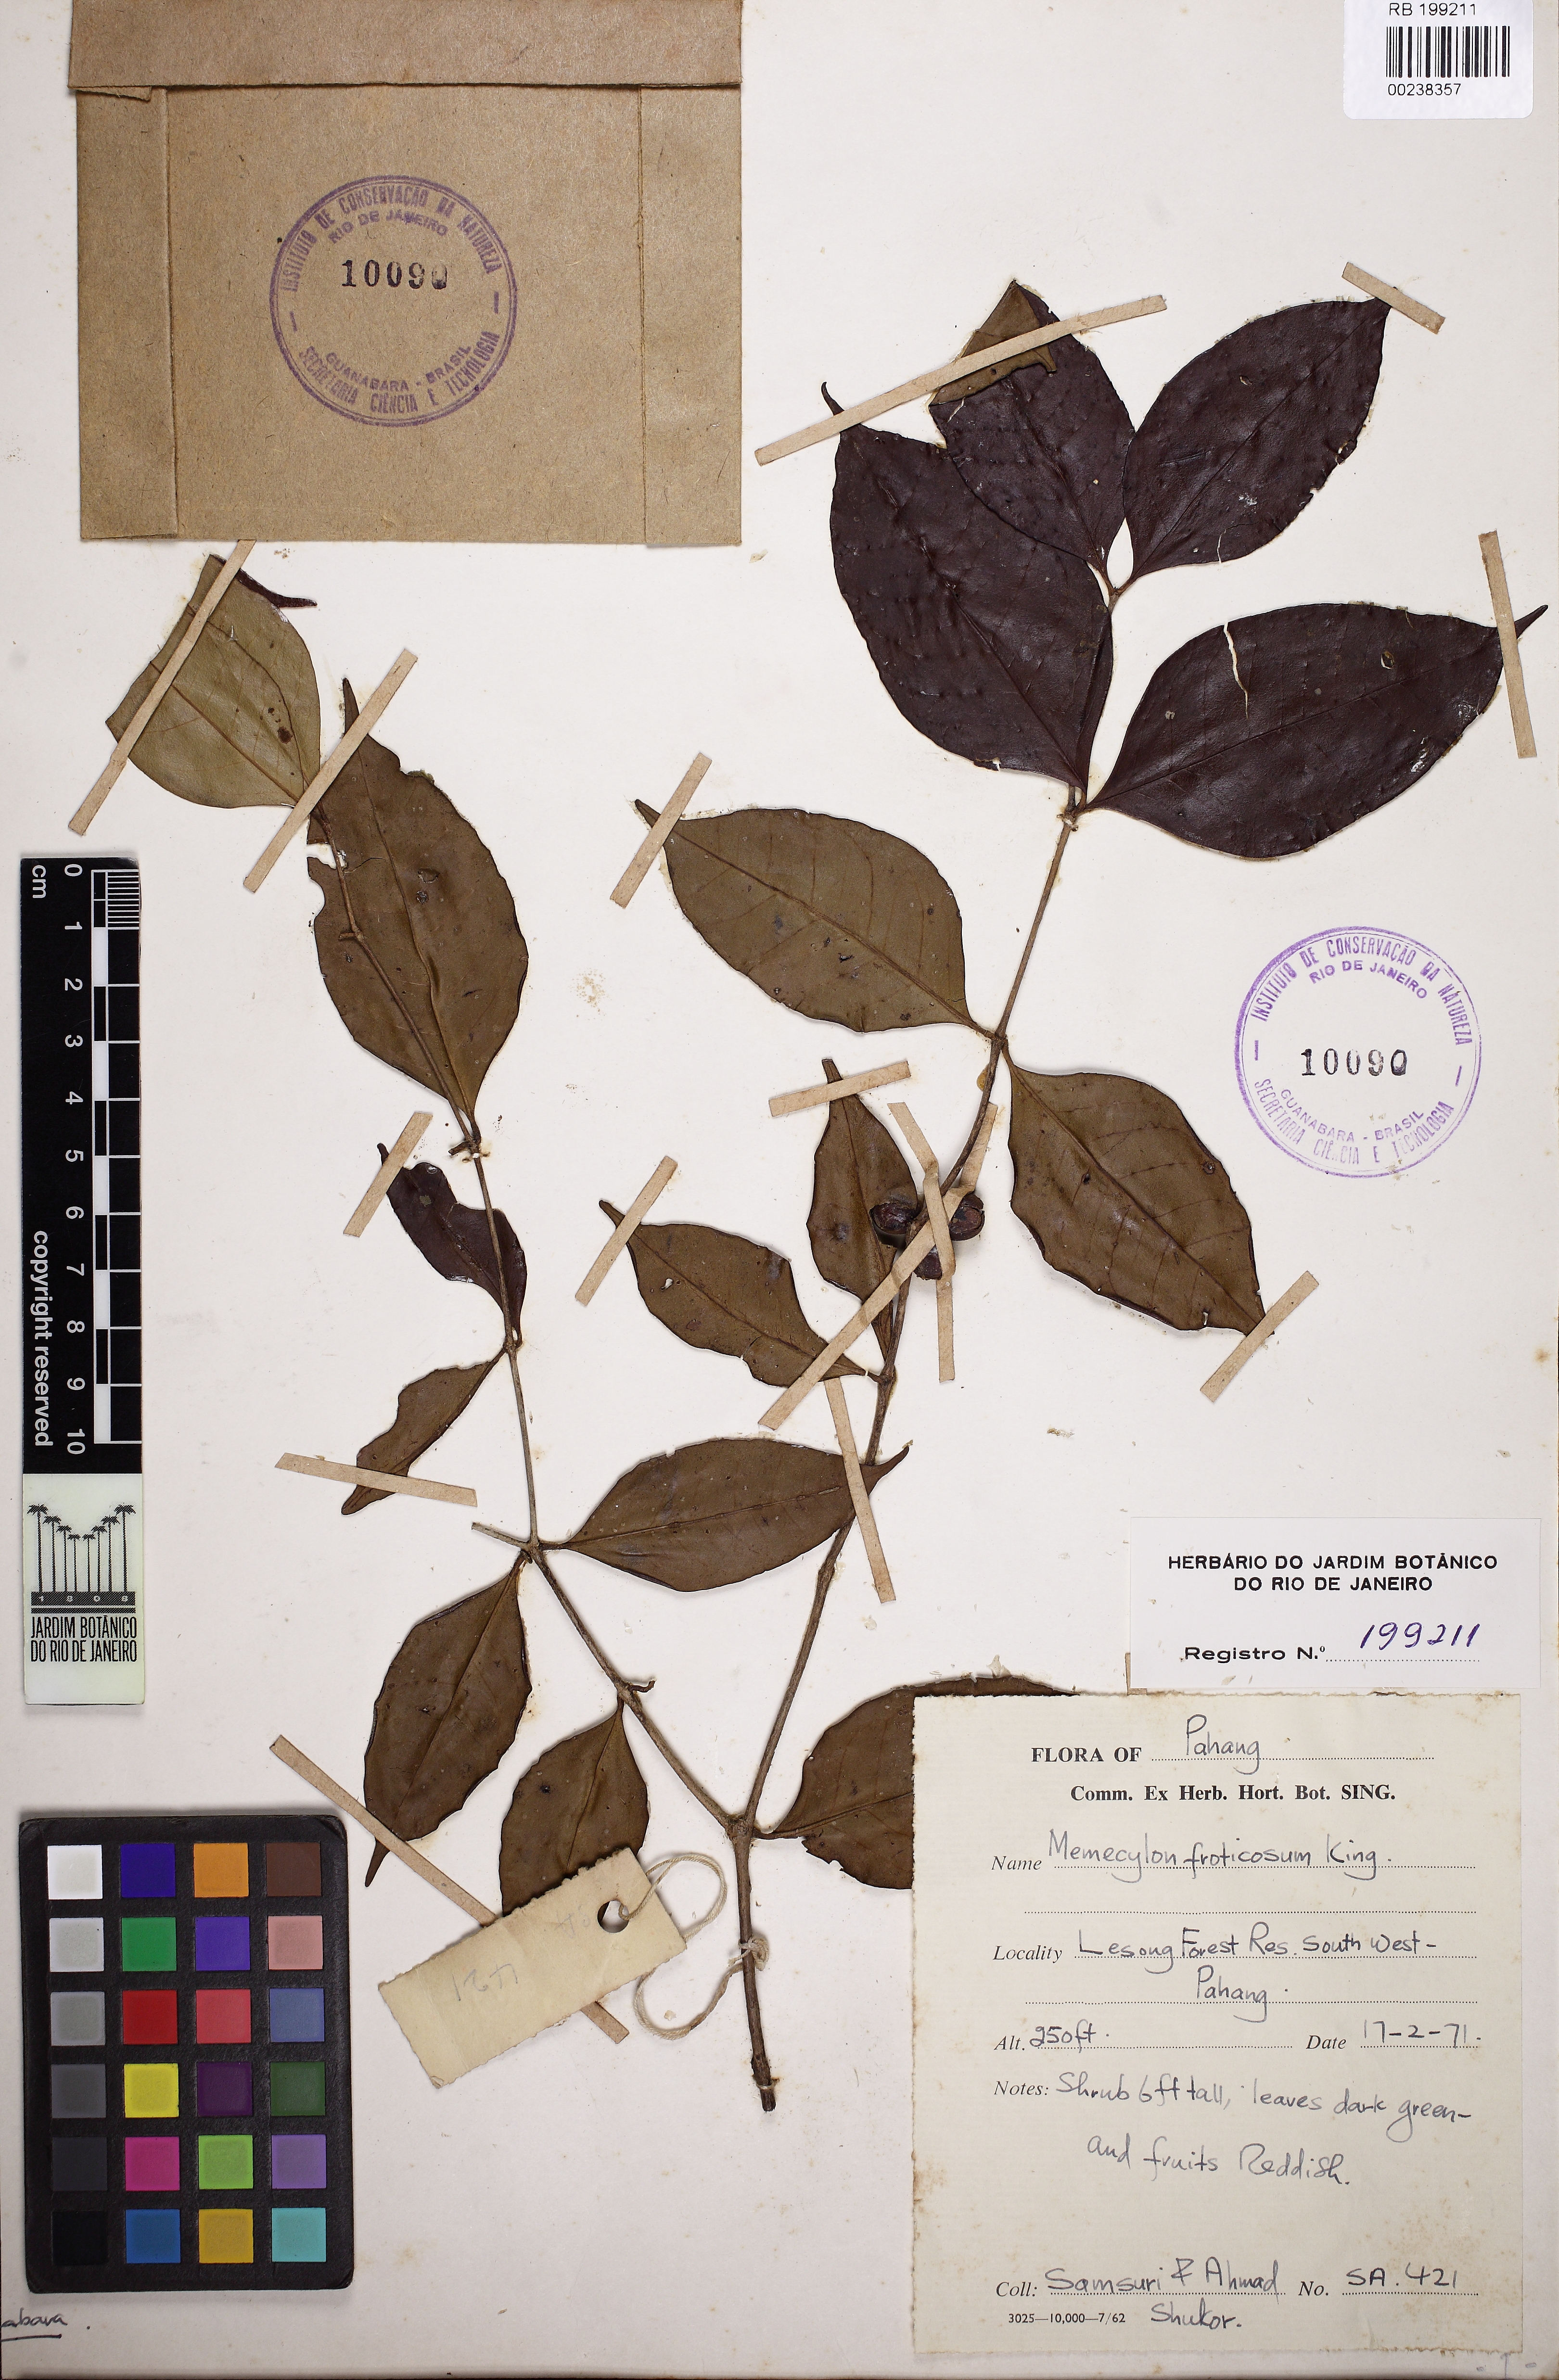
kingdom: Plantae
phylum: Tracheophyta
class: Magnoliopsida
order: Myrtales
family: Melastomataceae
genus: Memecylon
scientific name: Memecylon fruticosum
